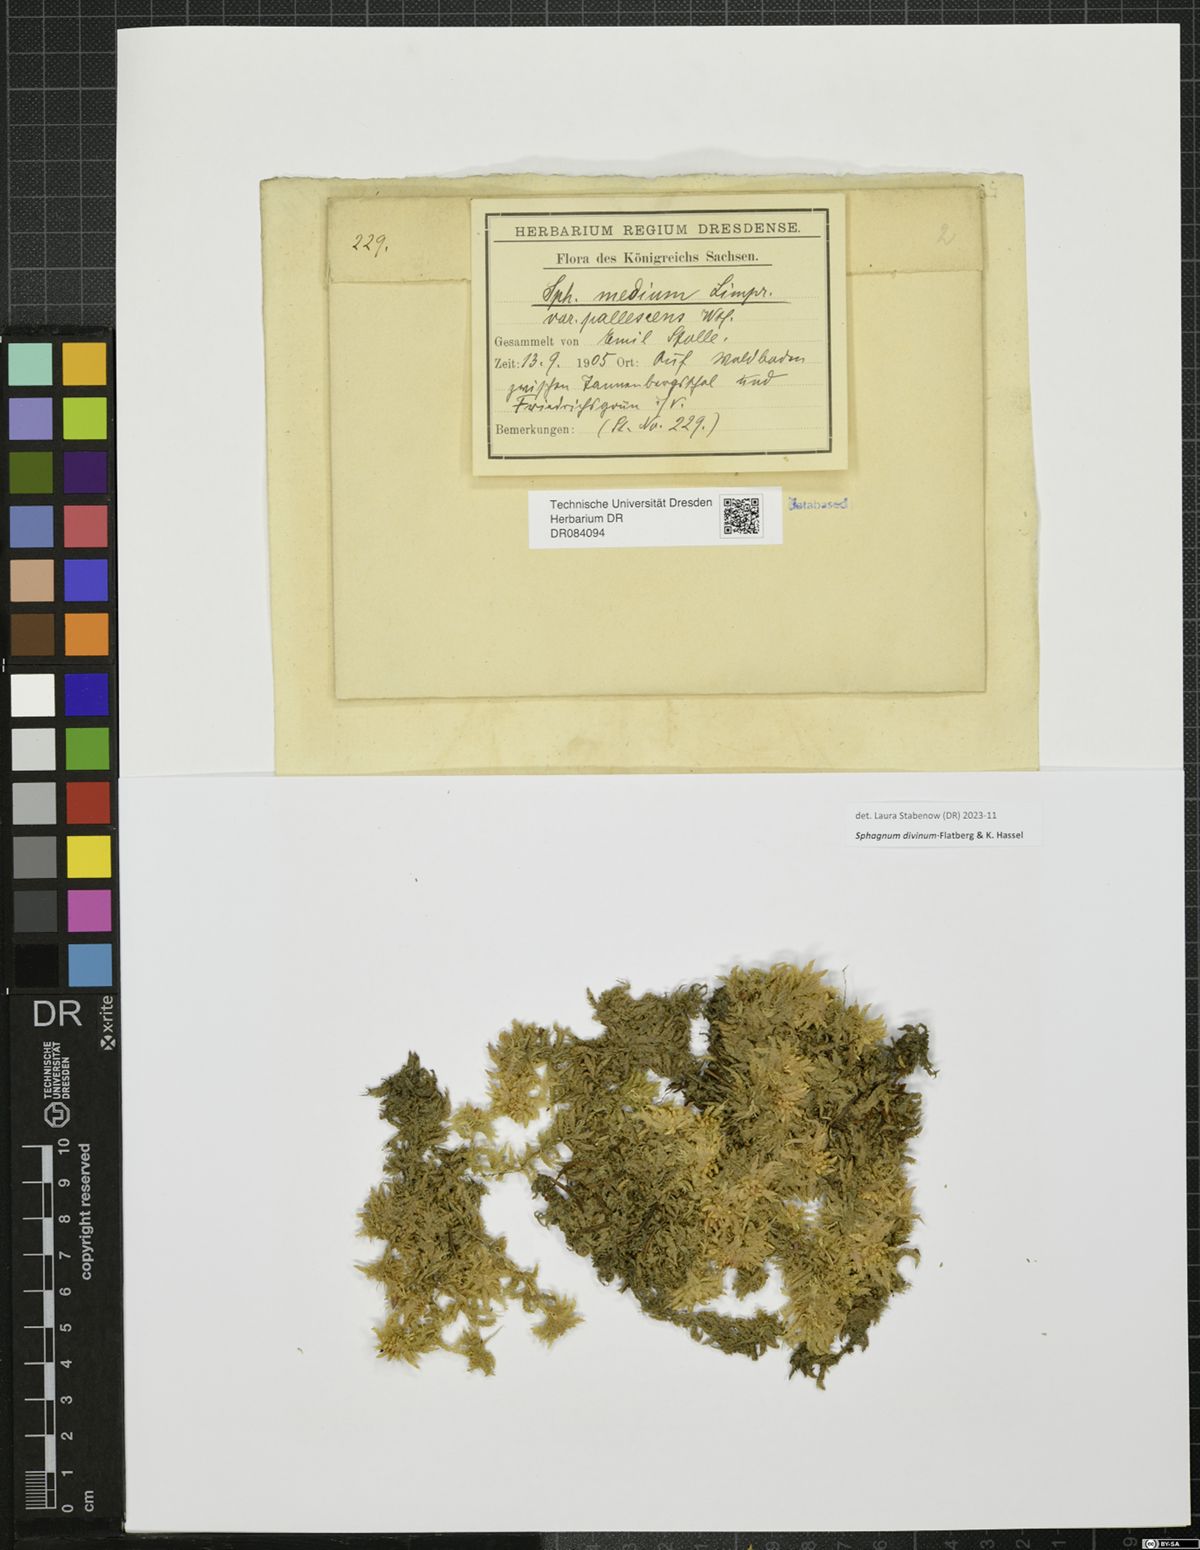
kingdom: Plantae
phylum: Bryophyta
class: Sphagnopsida
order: Sphagnales
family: Sphagnaceae
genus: Sphagnum
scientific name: Sphagnum divinum
